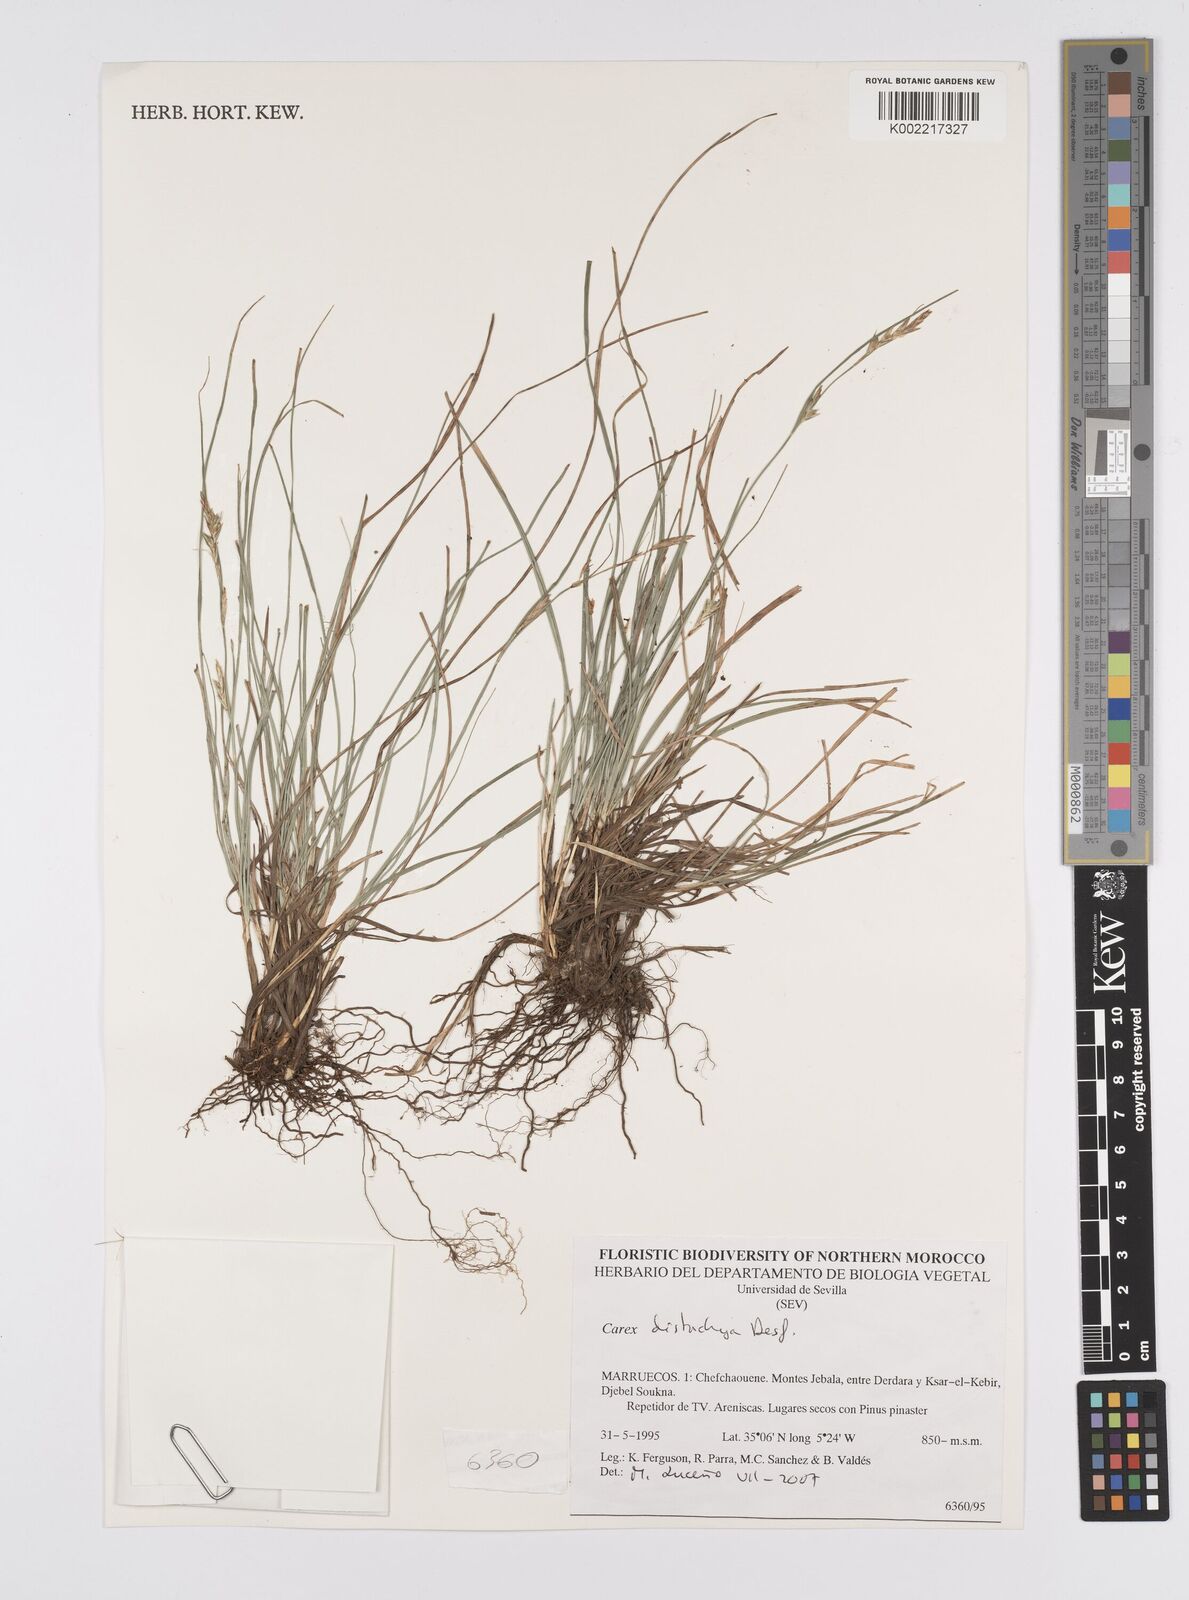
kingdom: Plantae
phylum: Tracheophyta
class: Liliopsida
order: Poales
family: Cyperaceae
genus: Carex
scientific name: Carex distachya
